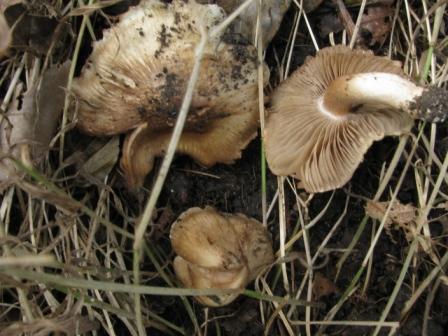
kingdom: Fungi
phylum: Basidiomycota
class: Agaricomycetes
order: Agaricales
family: Inocybaceae
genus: Inocybe
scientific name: Inocybe incarnata
